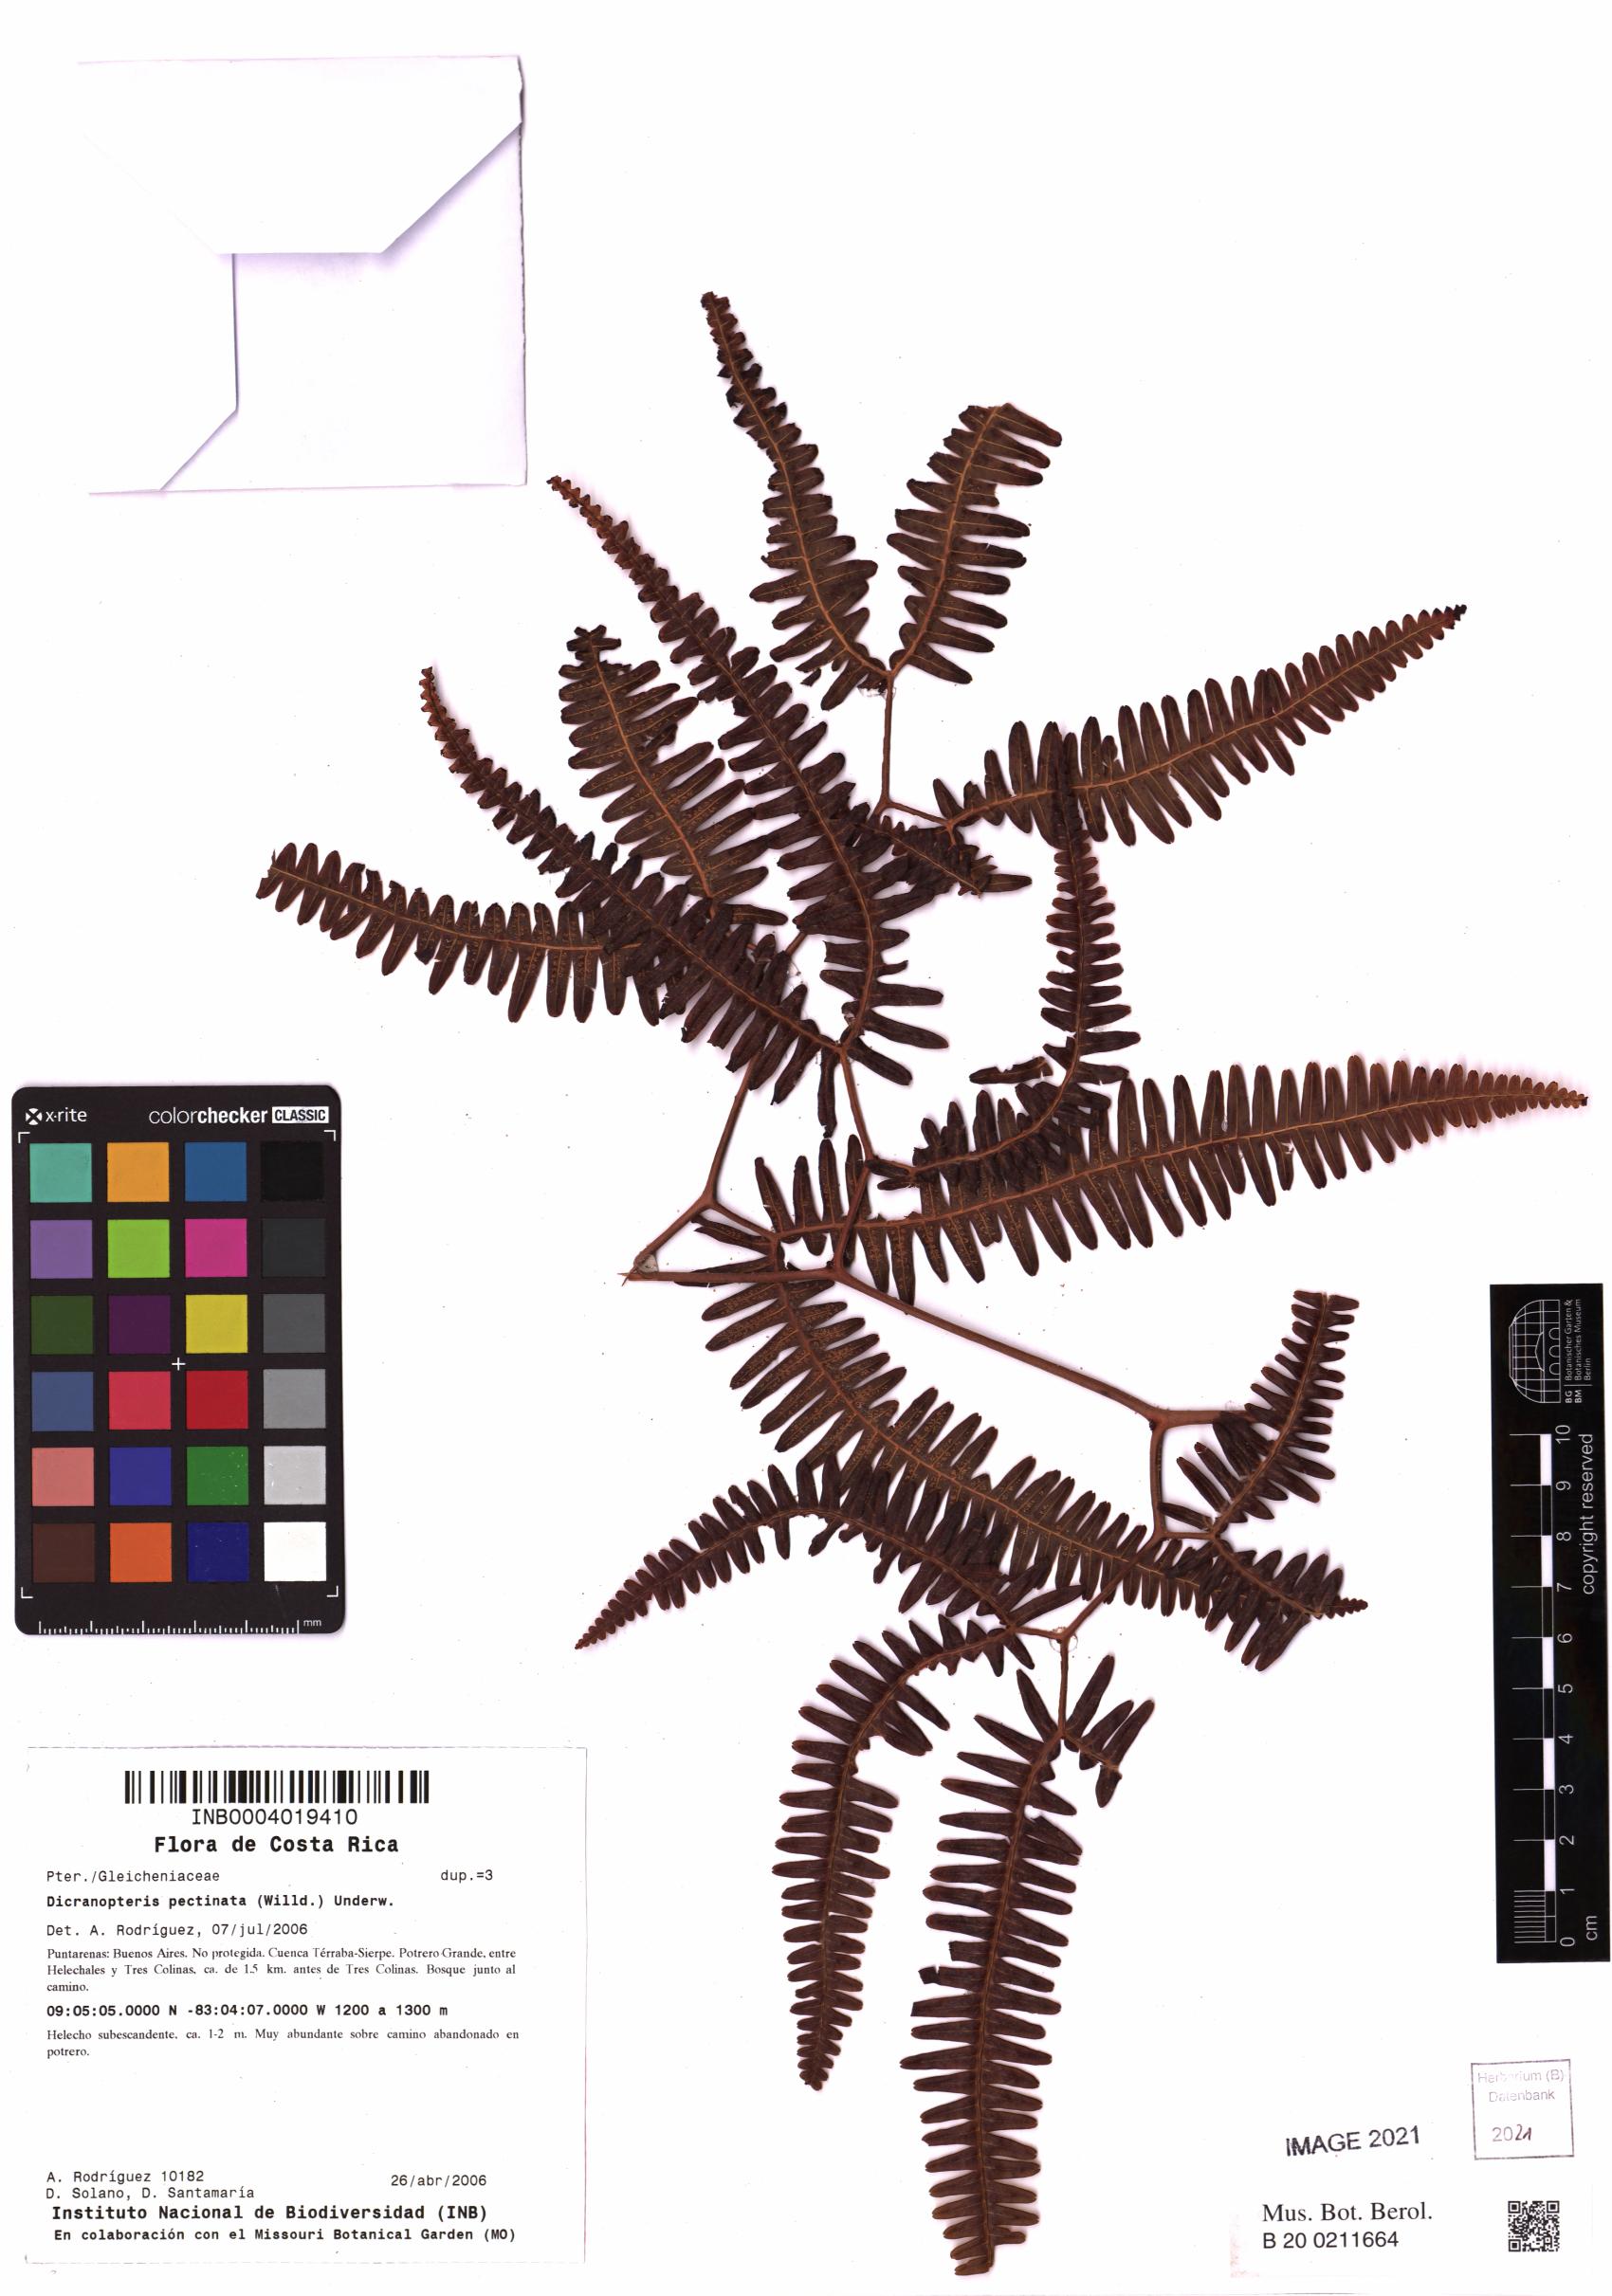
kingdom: Plantae
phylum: Tracheophyta
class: Polypodiopsida
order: Gleicheniales
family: Gleicheniaceae
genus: Gleichenella
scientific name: Gleichenella pectinata
